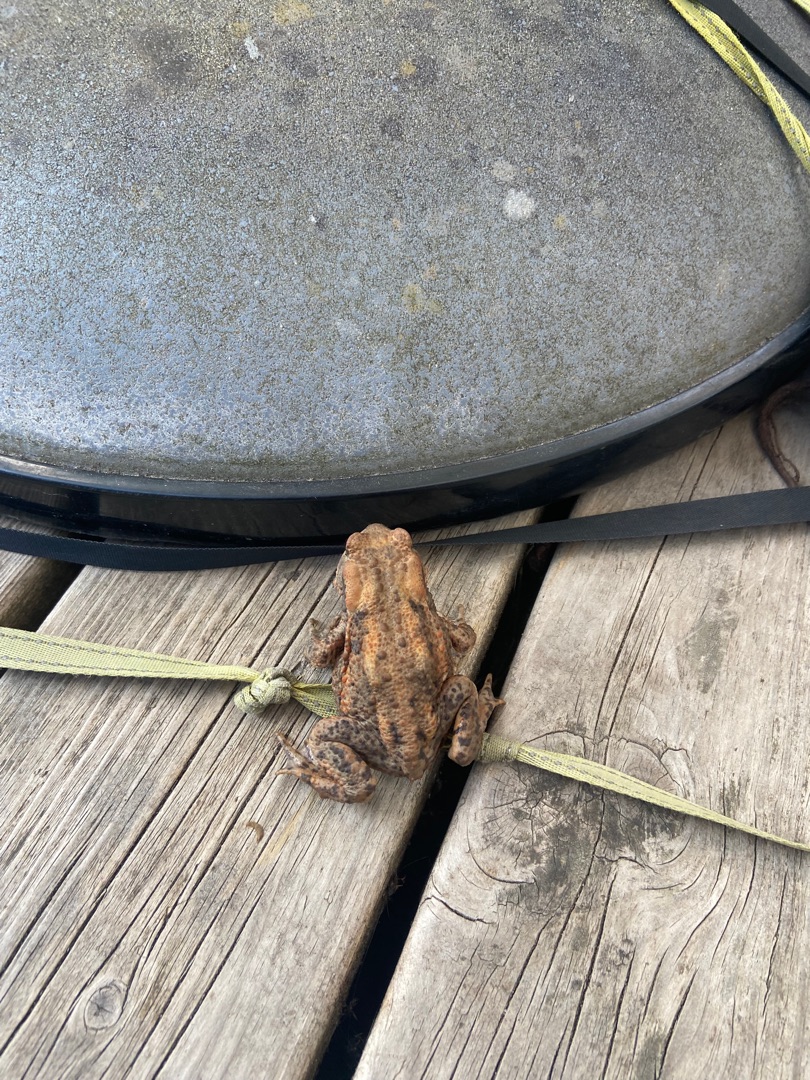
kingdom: Animalia
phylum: Chordata
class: Amphibia
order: Anura
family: Bufonidae
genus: Bufo
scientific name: Bufo bufo
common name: Skrubtudse
